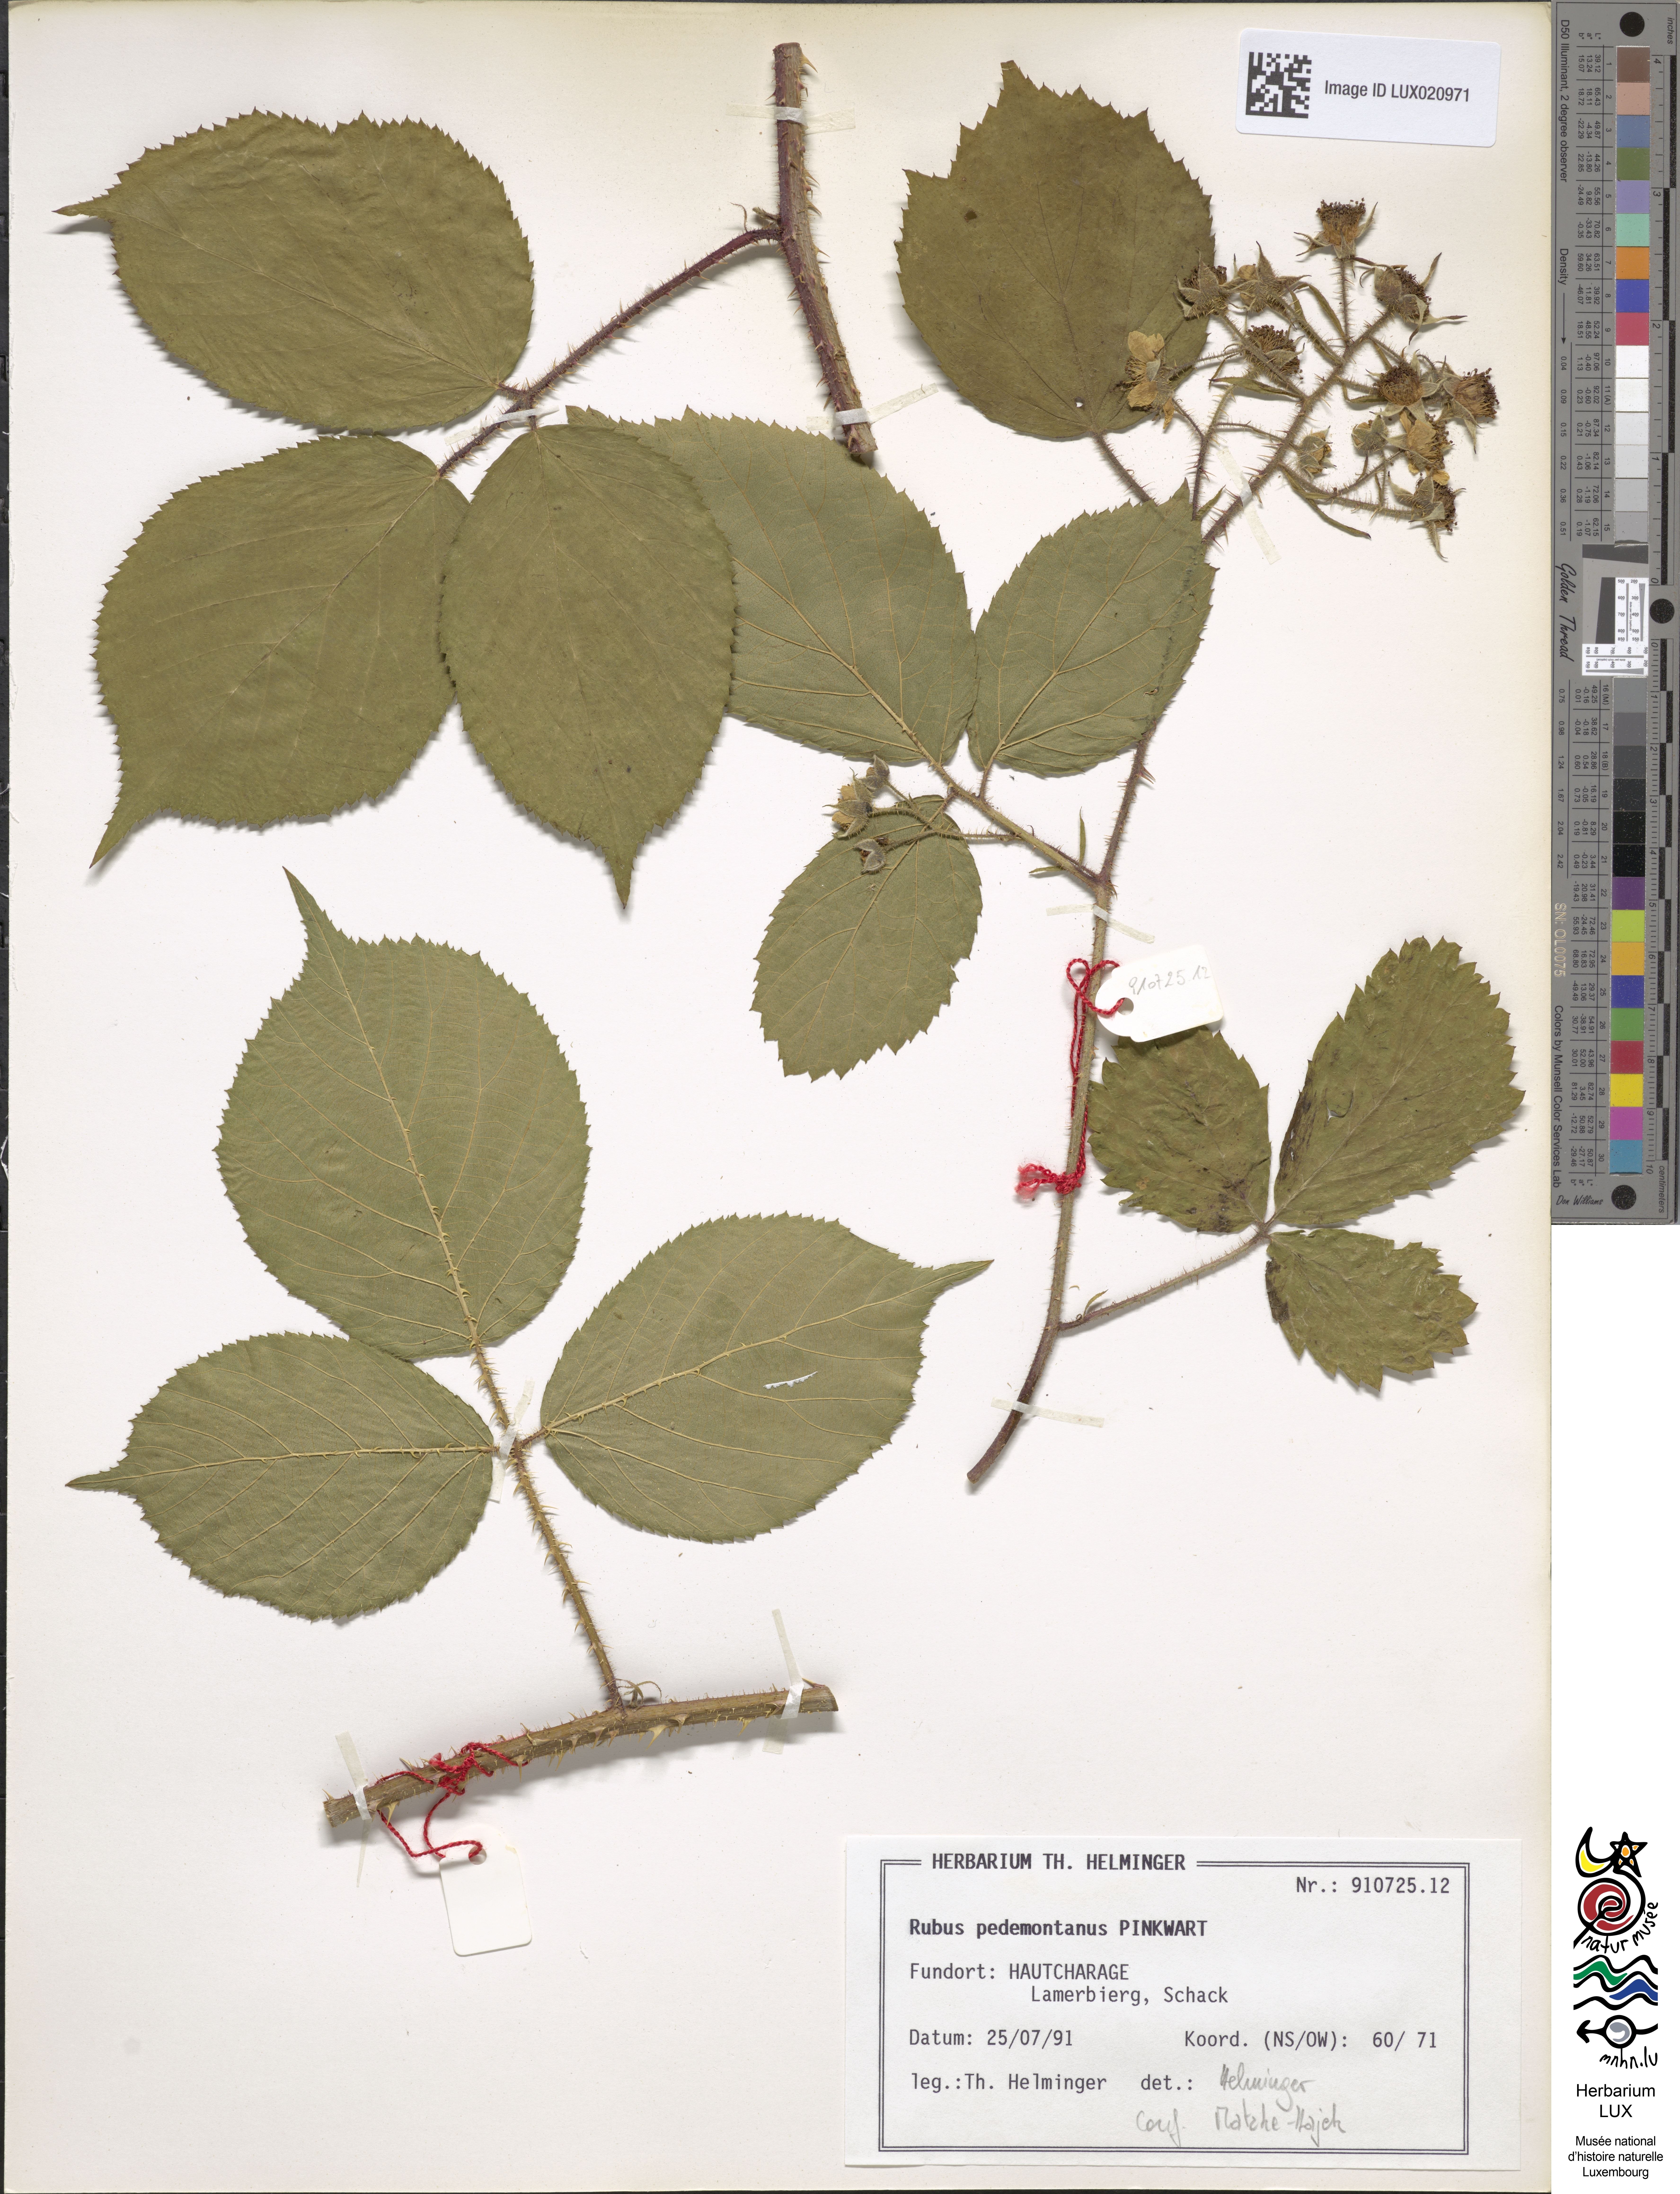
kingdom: Plantae
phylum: Tracheophyta
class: Magnoliopsida
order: Rosales
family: Rosaceae
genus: Rubus
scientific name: Rubus nigricans
